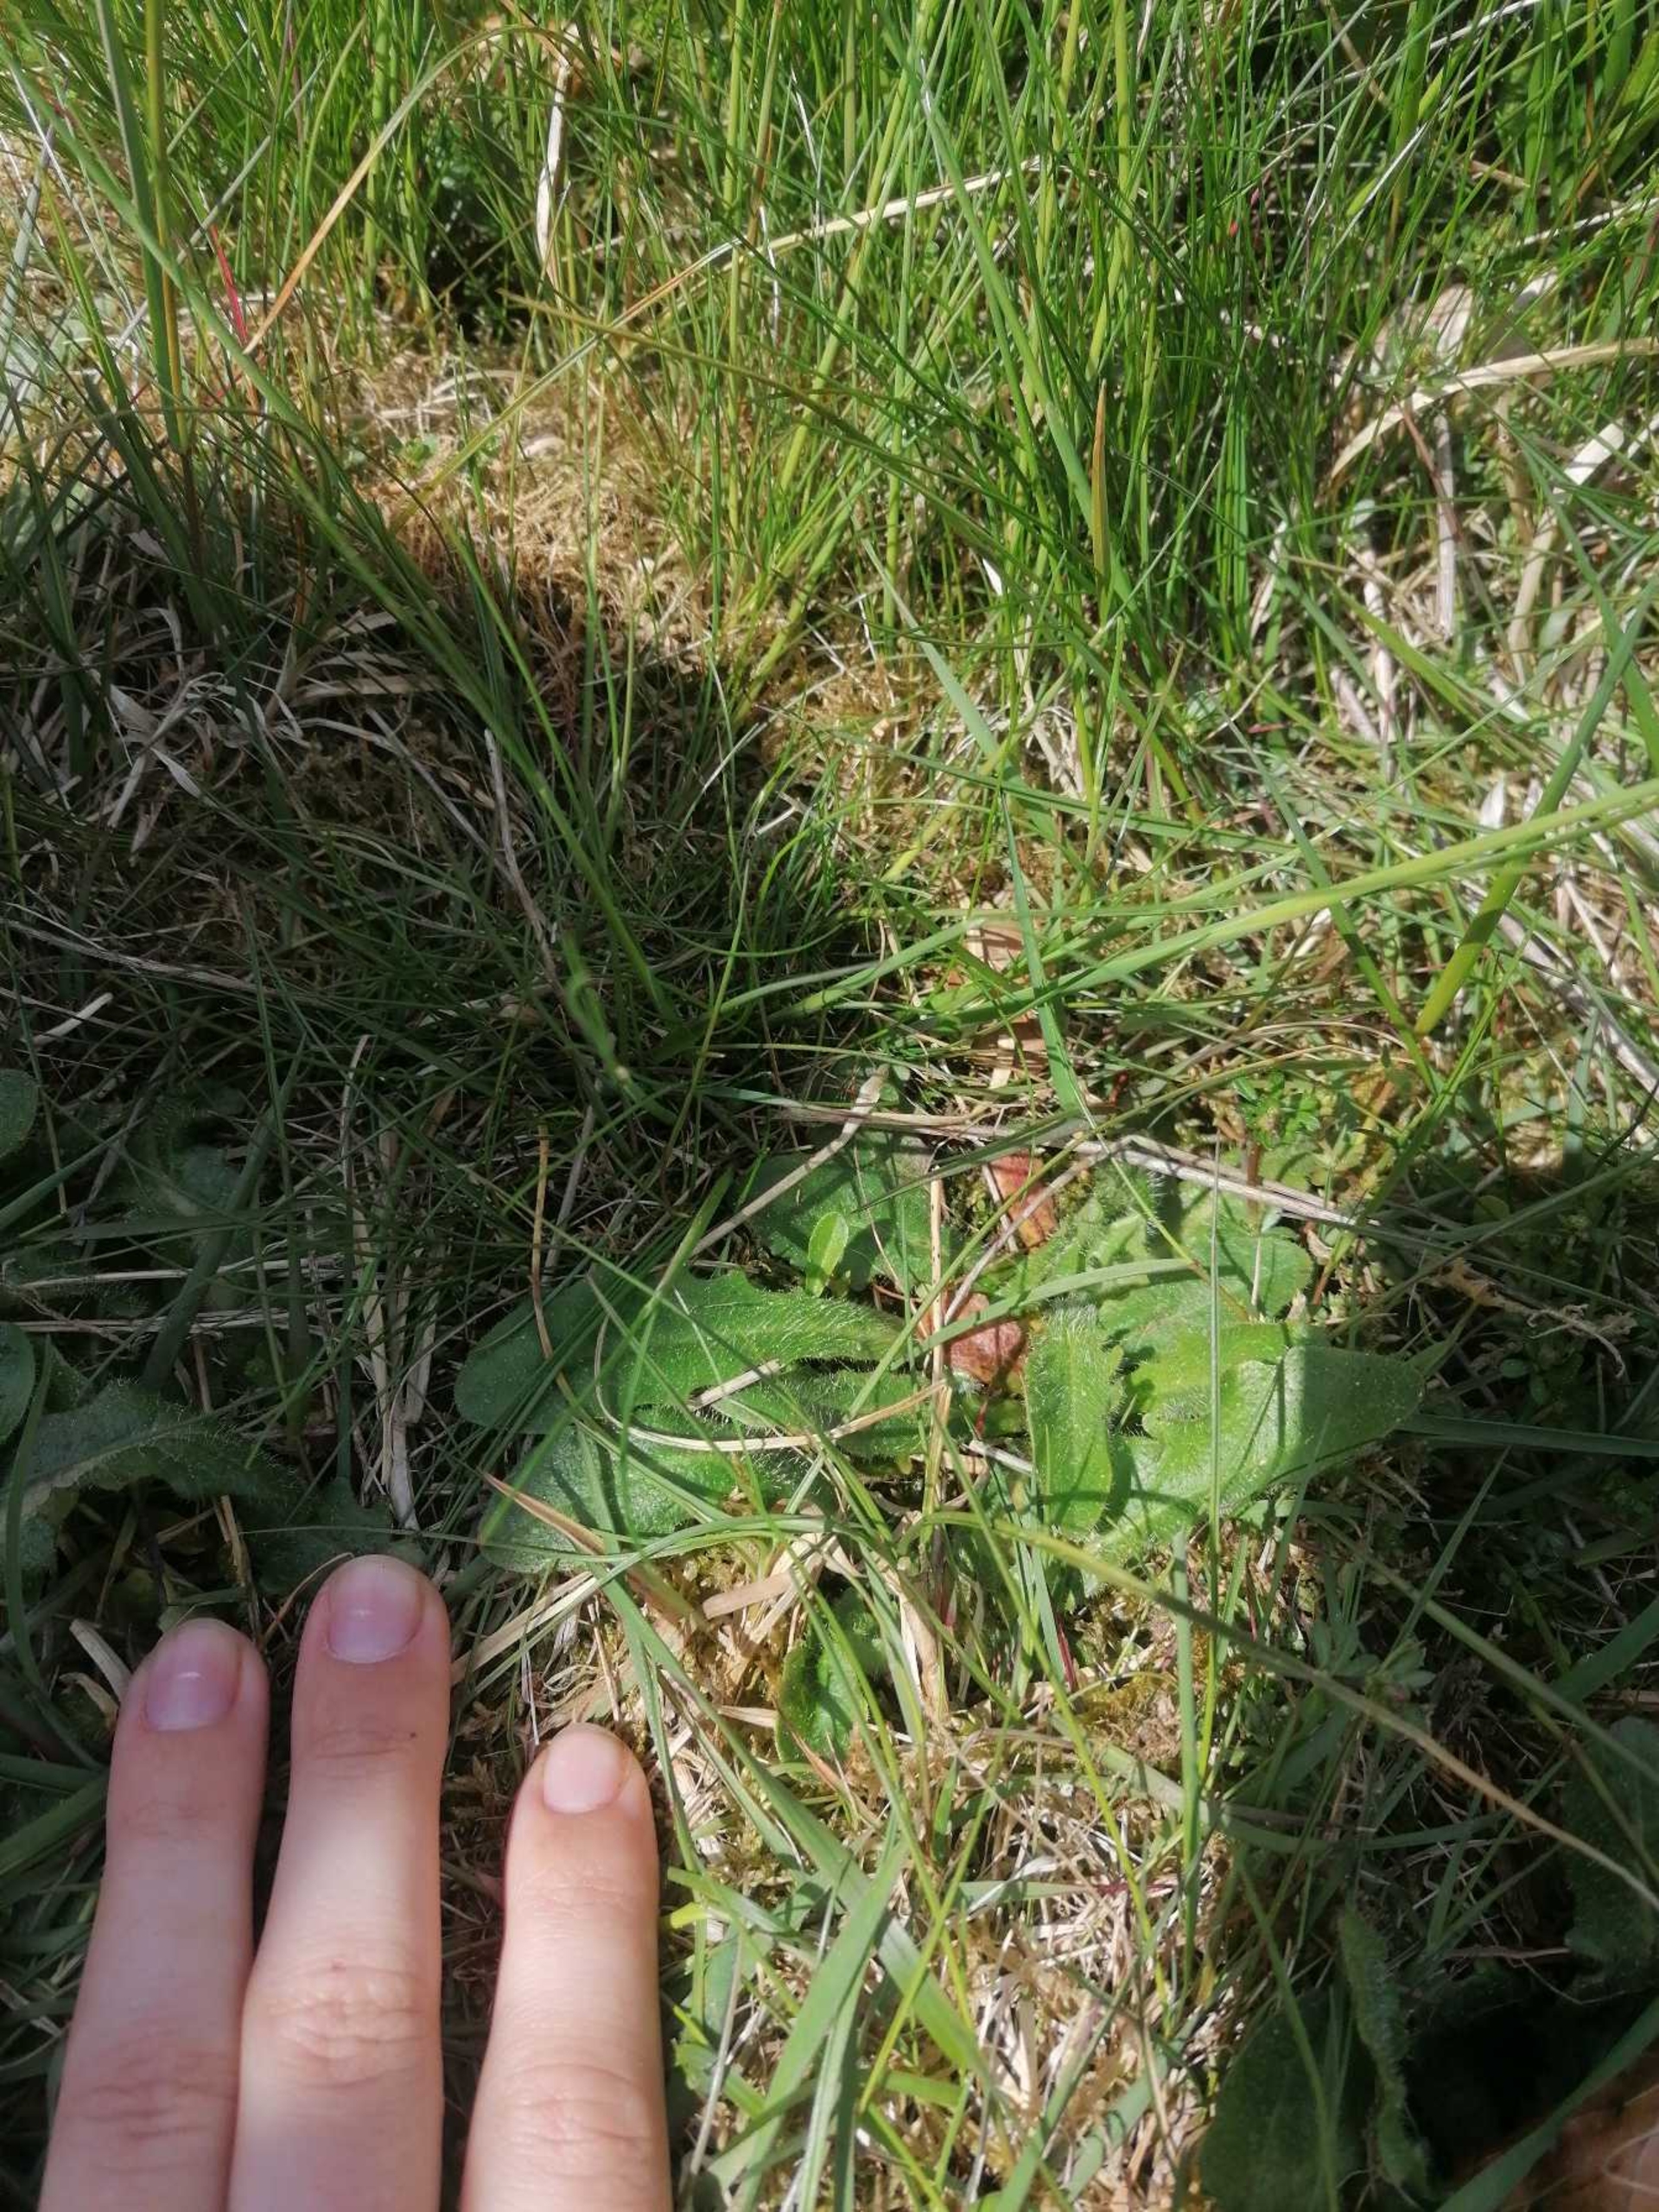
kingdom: Plantae
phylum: Tracheophyta
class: Magnoliopsida
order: Asterales
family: Asteraceae
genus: Hypochaeris
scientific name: Hypochaeris radicata
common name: Almindelig kongepen
